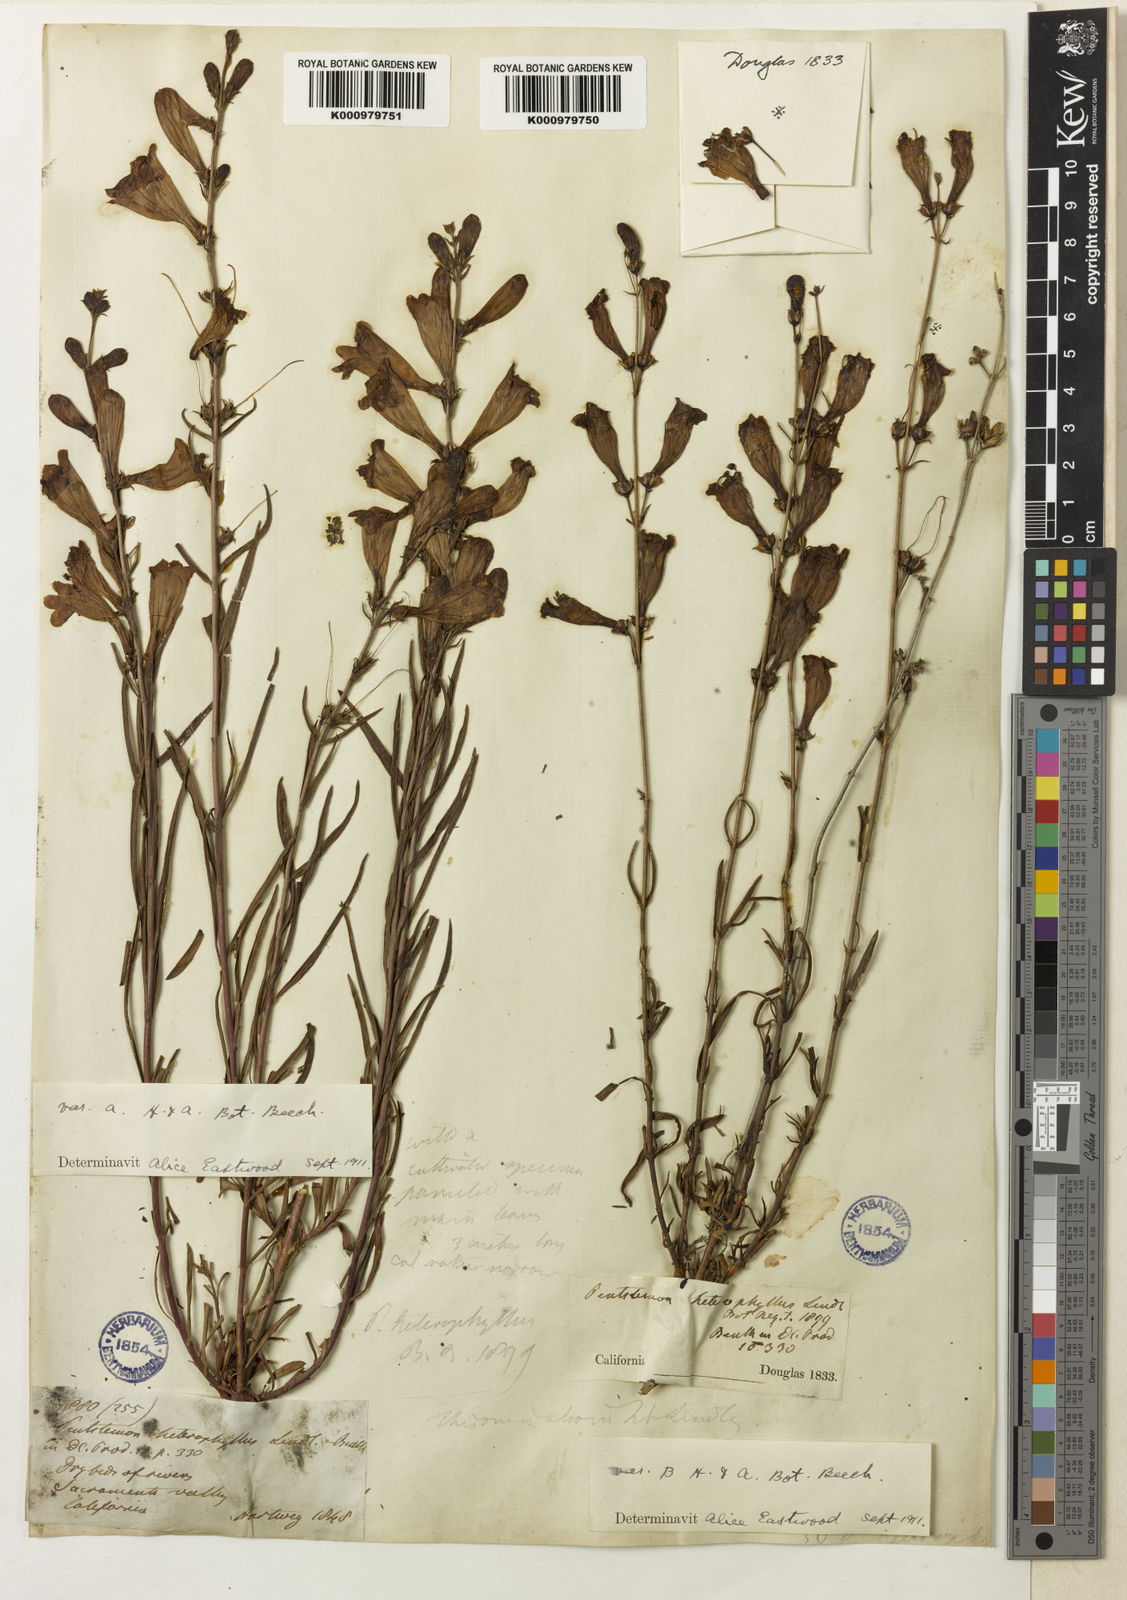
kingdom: Plantae
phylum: Tracheophyta
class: Magnoliopsida
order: Lamiales
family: Plantaginaceae
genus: Penstemon
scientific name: Penstemon heterophyllus
